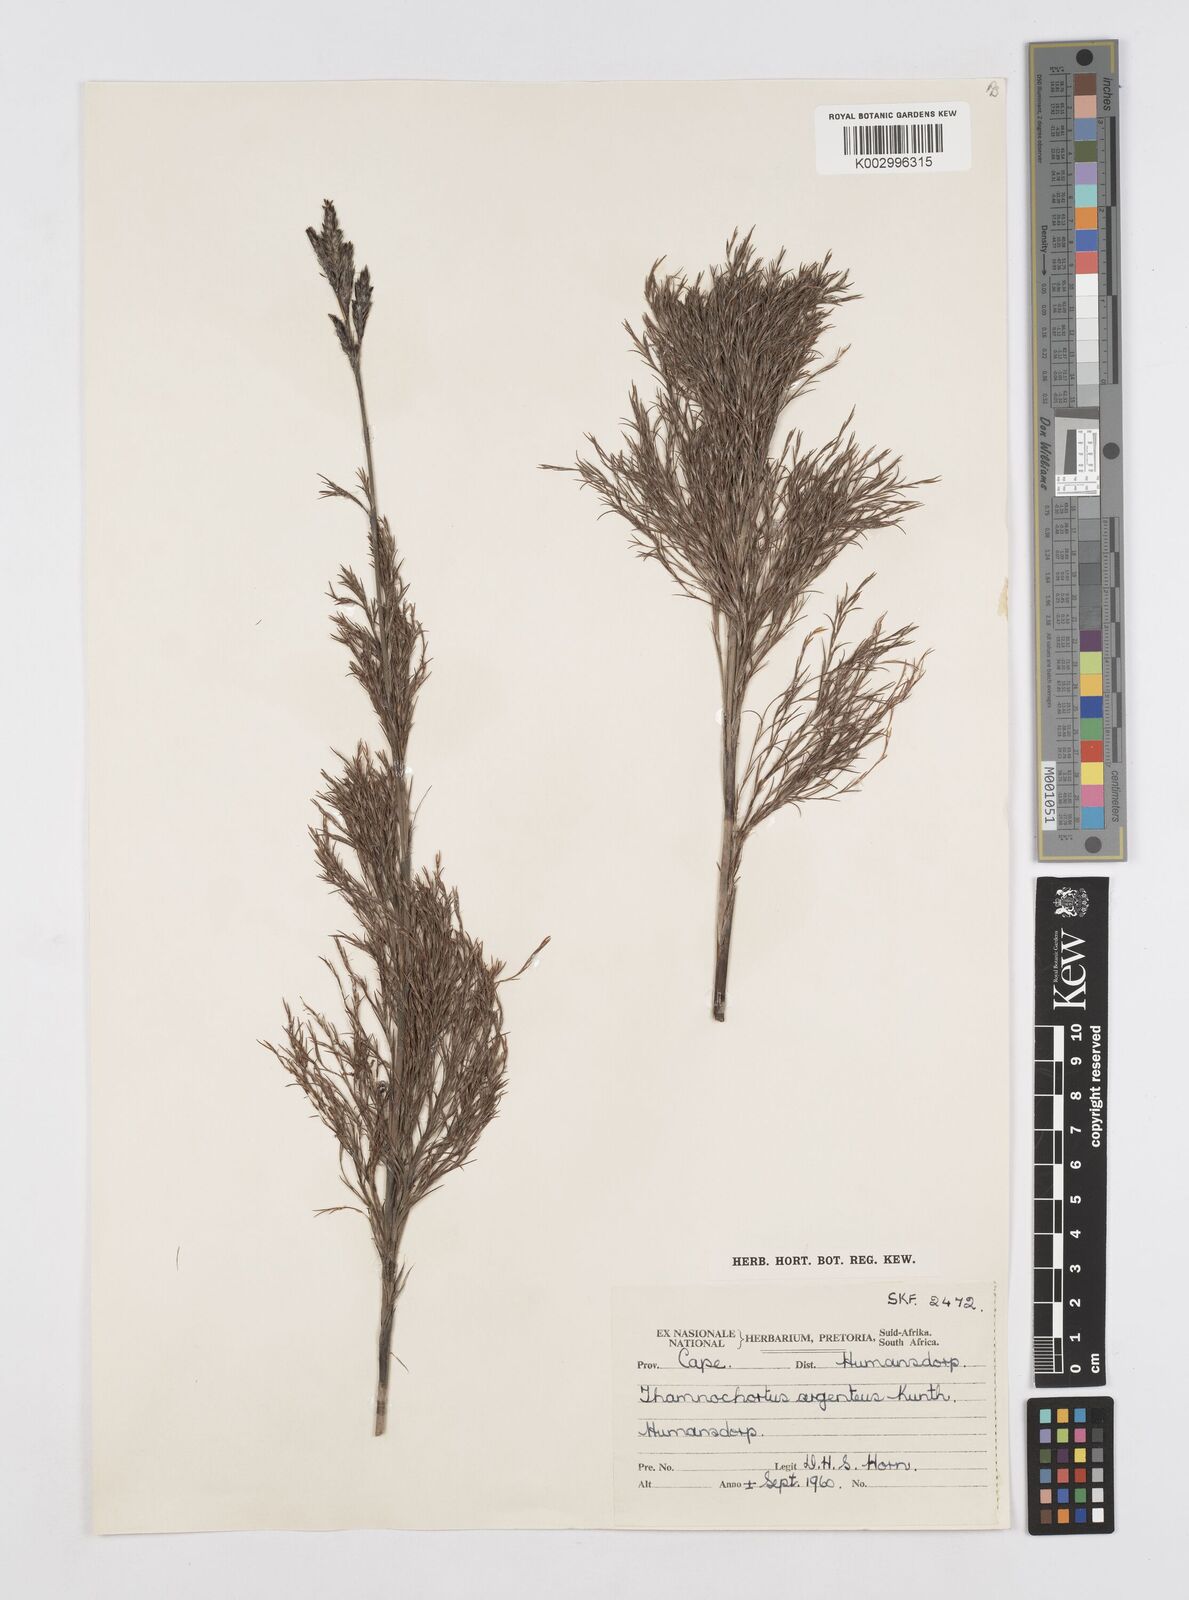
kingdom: Plantae
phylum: Tracheophyta
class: Liliopsida
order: Poales
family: Restionaceae
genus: Hypodiscus
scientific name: Hypodiscus argenteus
